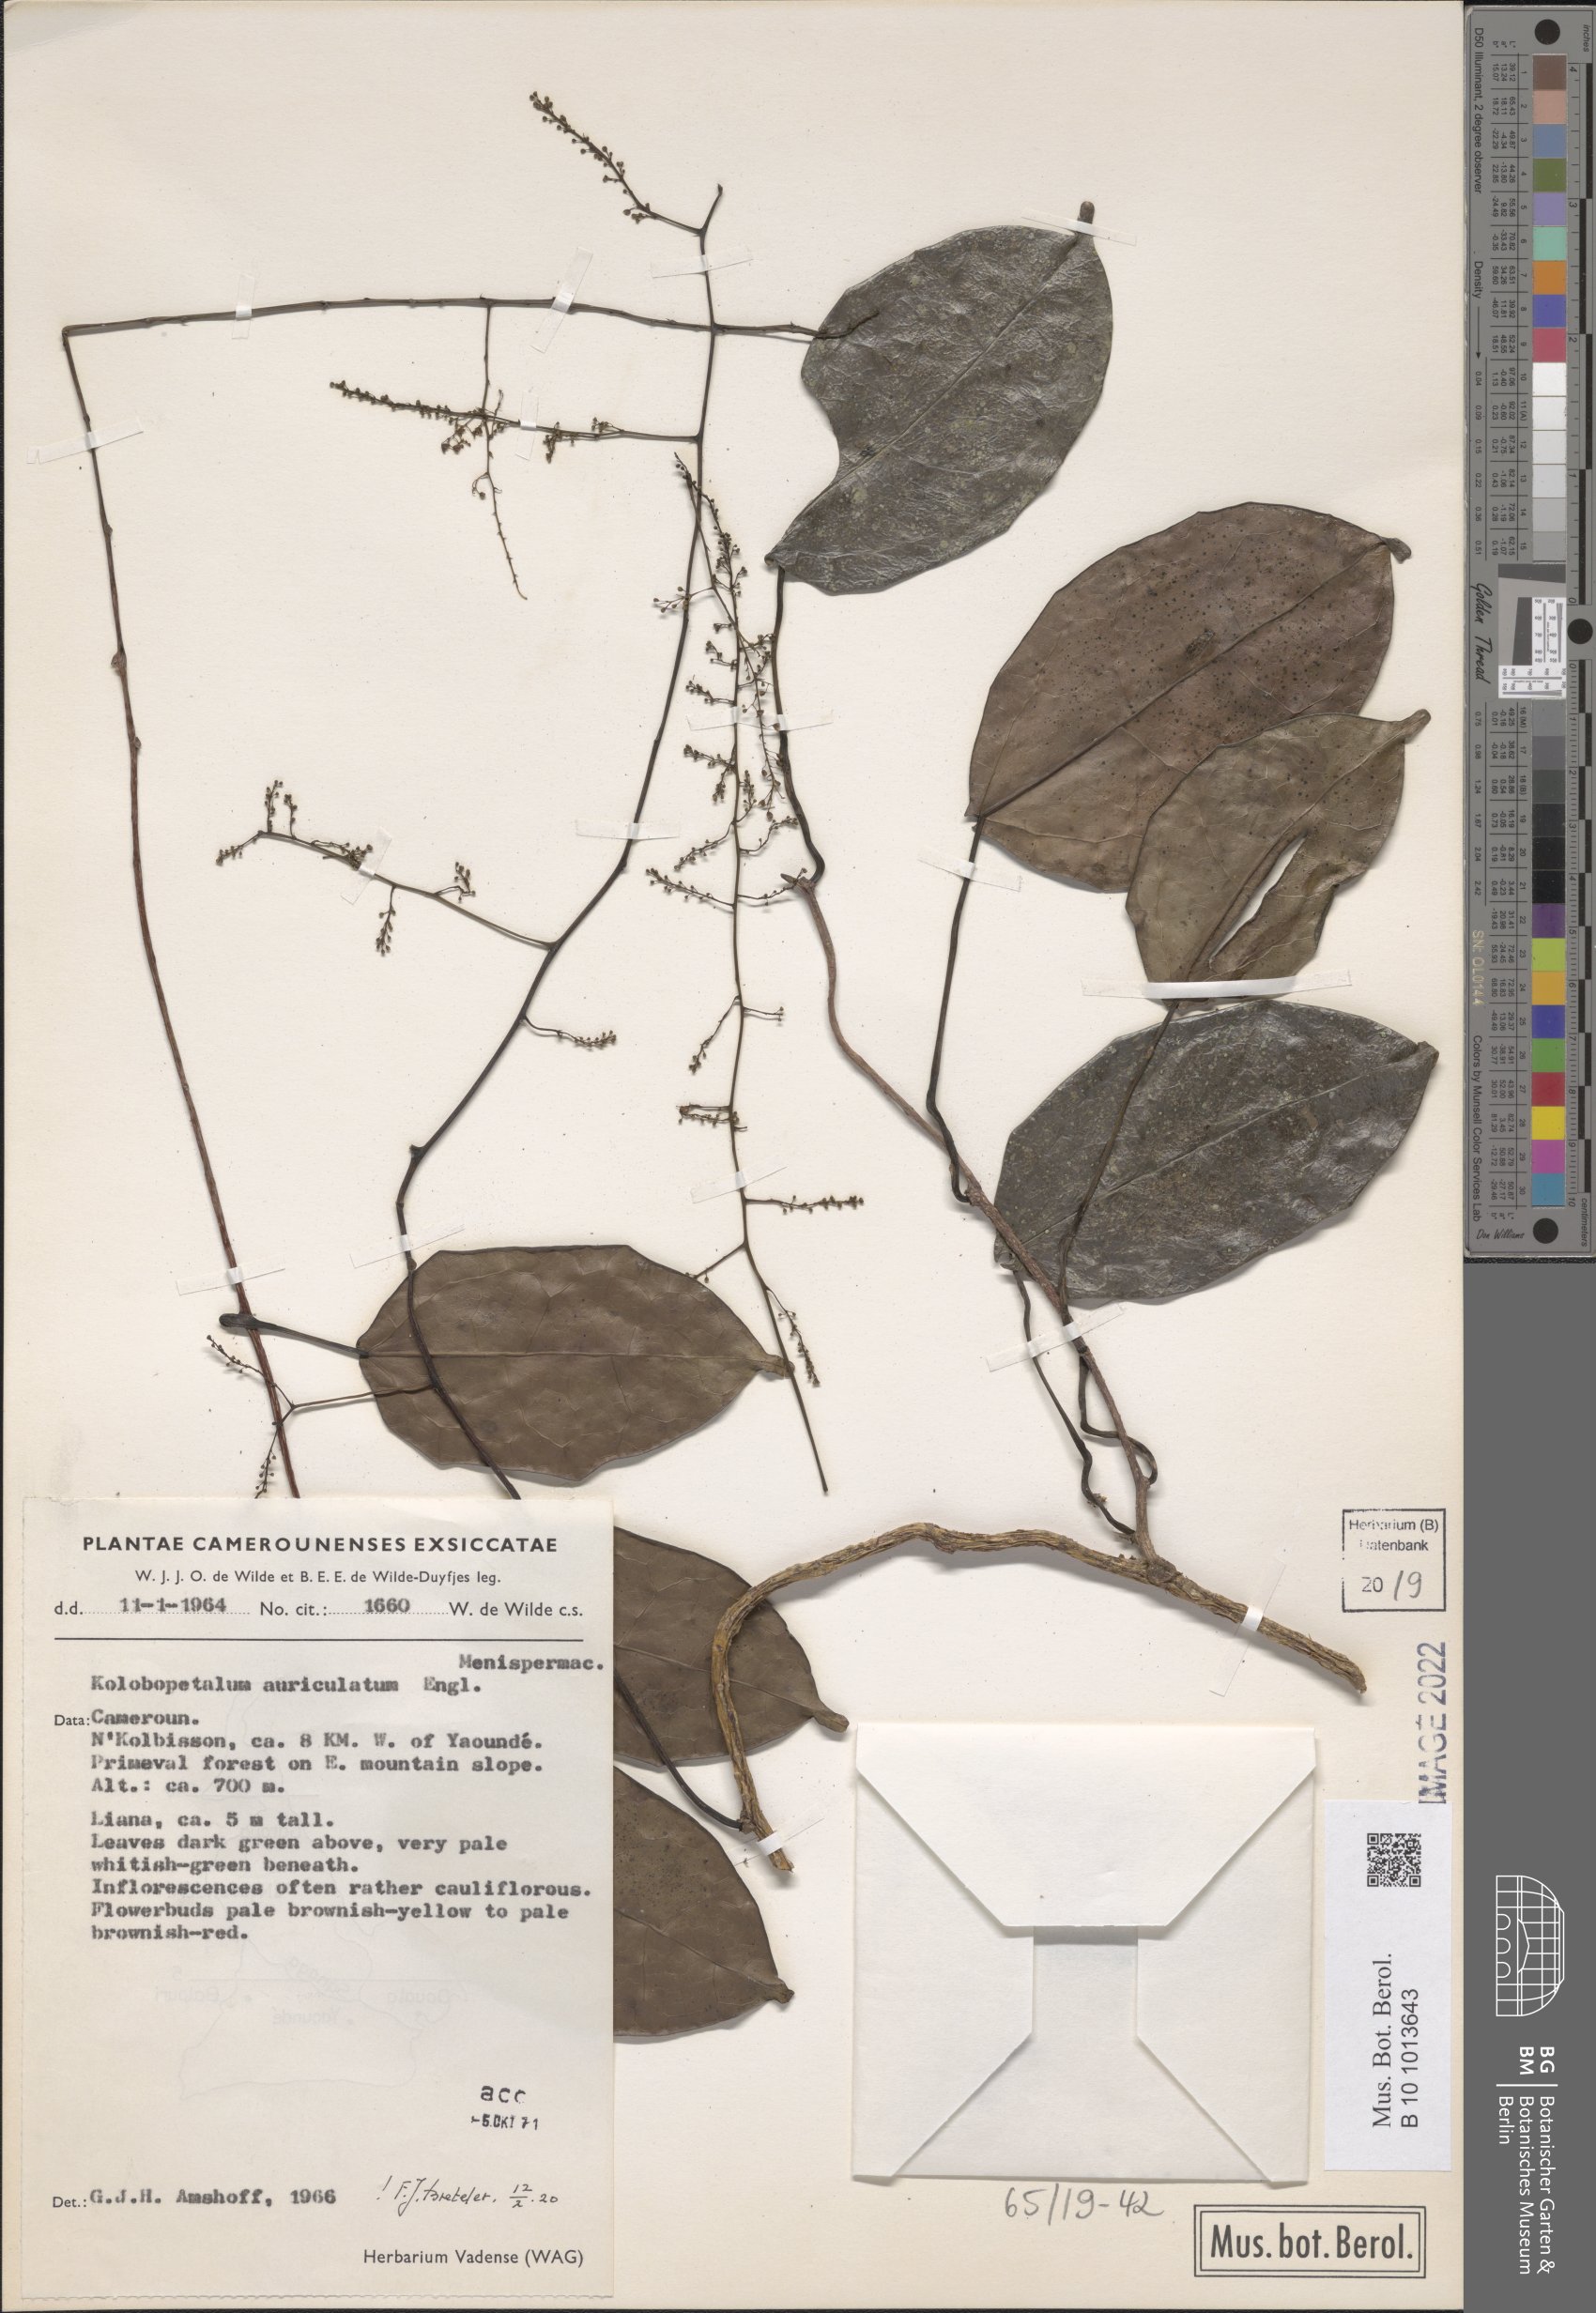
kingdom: Plantae
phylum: Tracheophyta
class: Magnoliopsida
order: Ranunculales
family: Menispermaceae
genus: Kolobopetalum
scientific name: Kolobopetalum auriculatum
